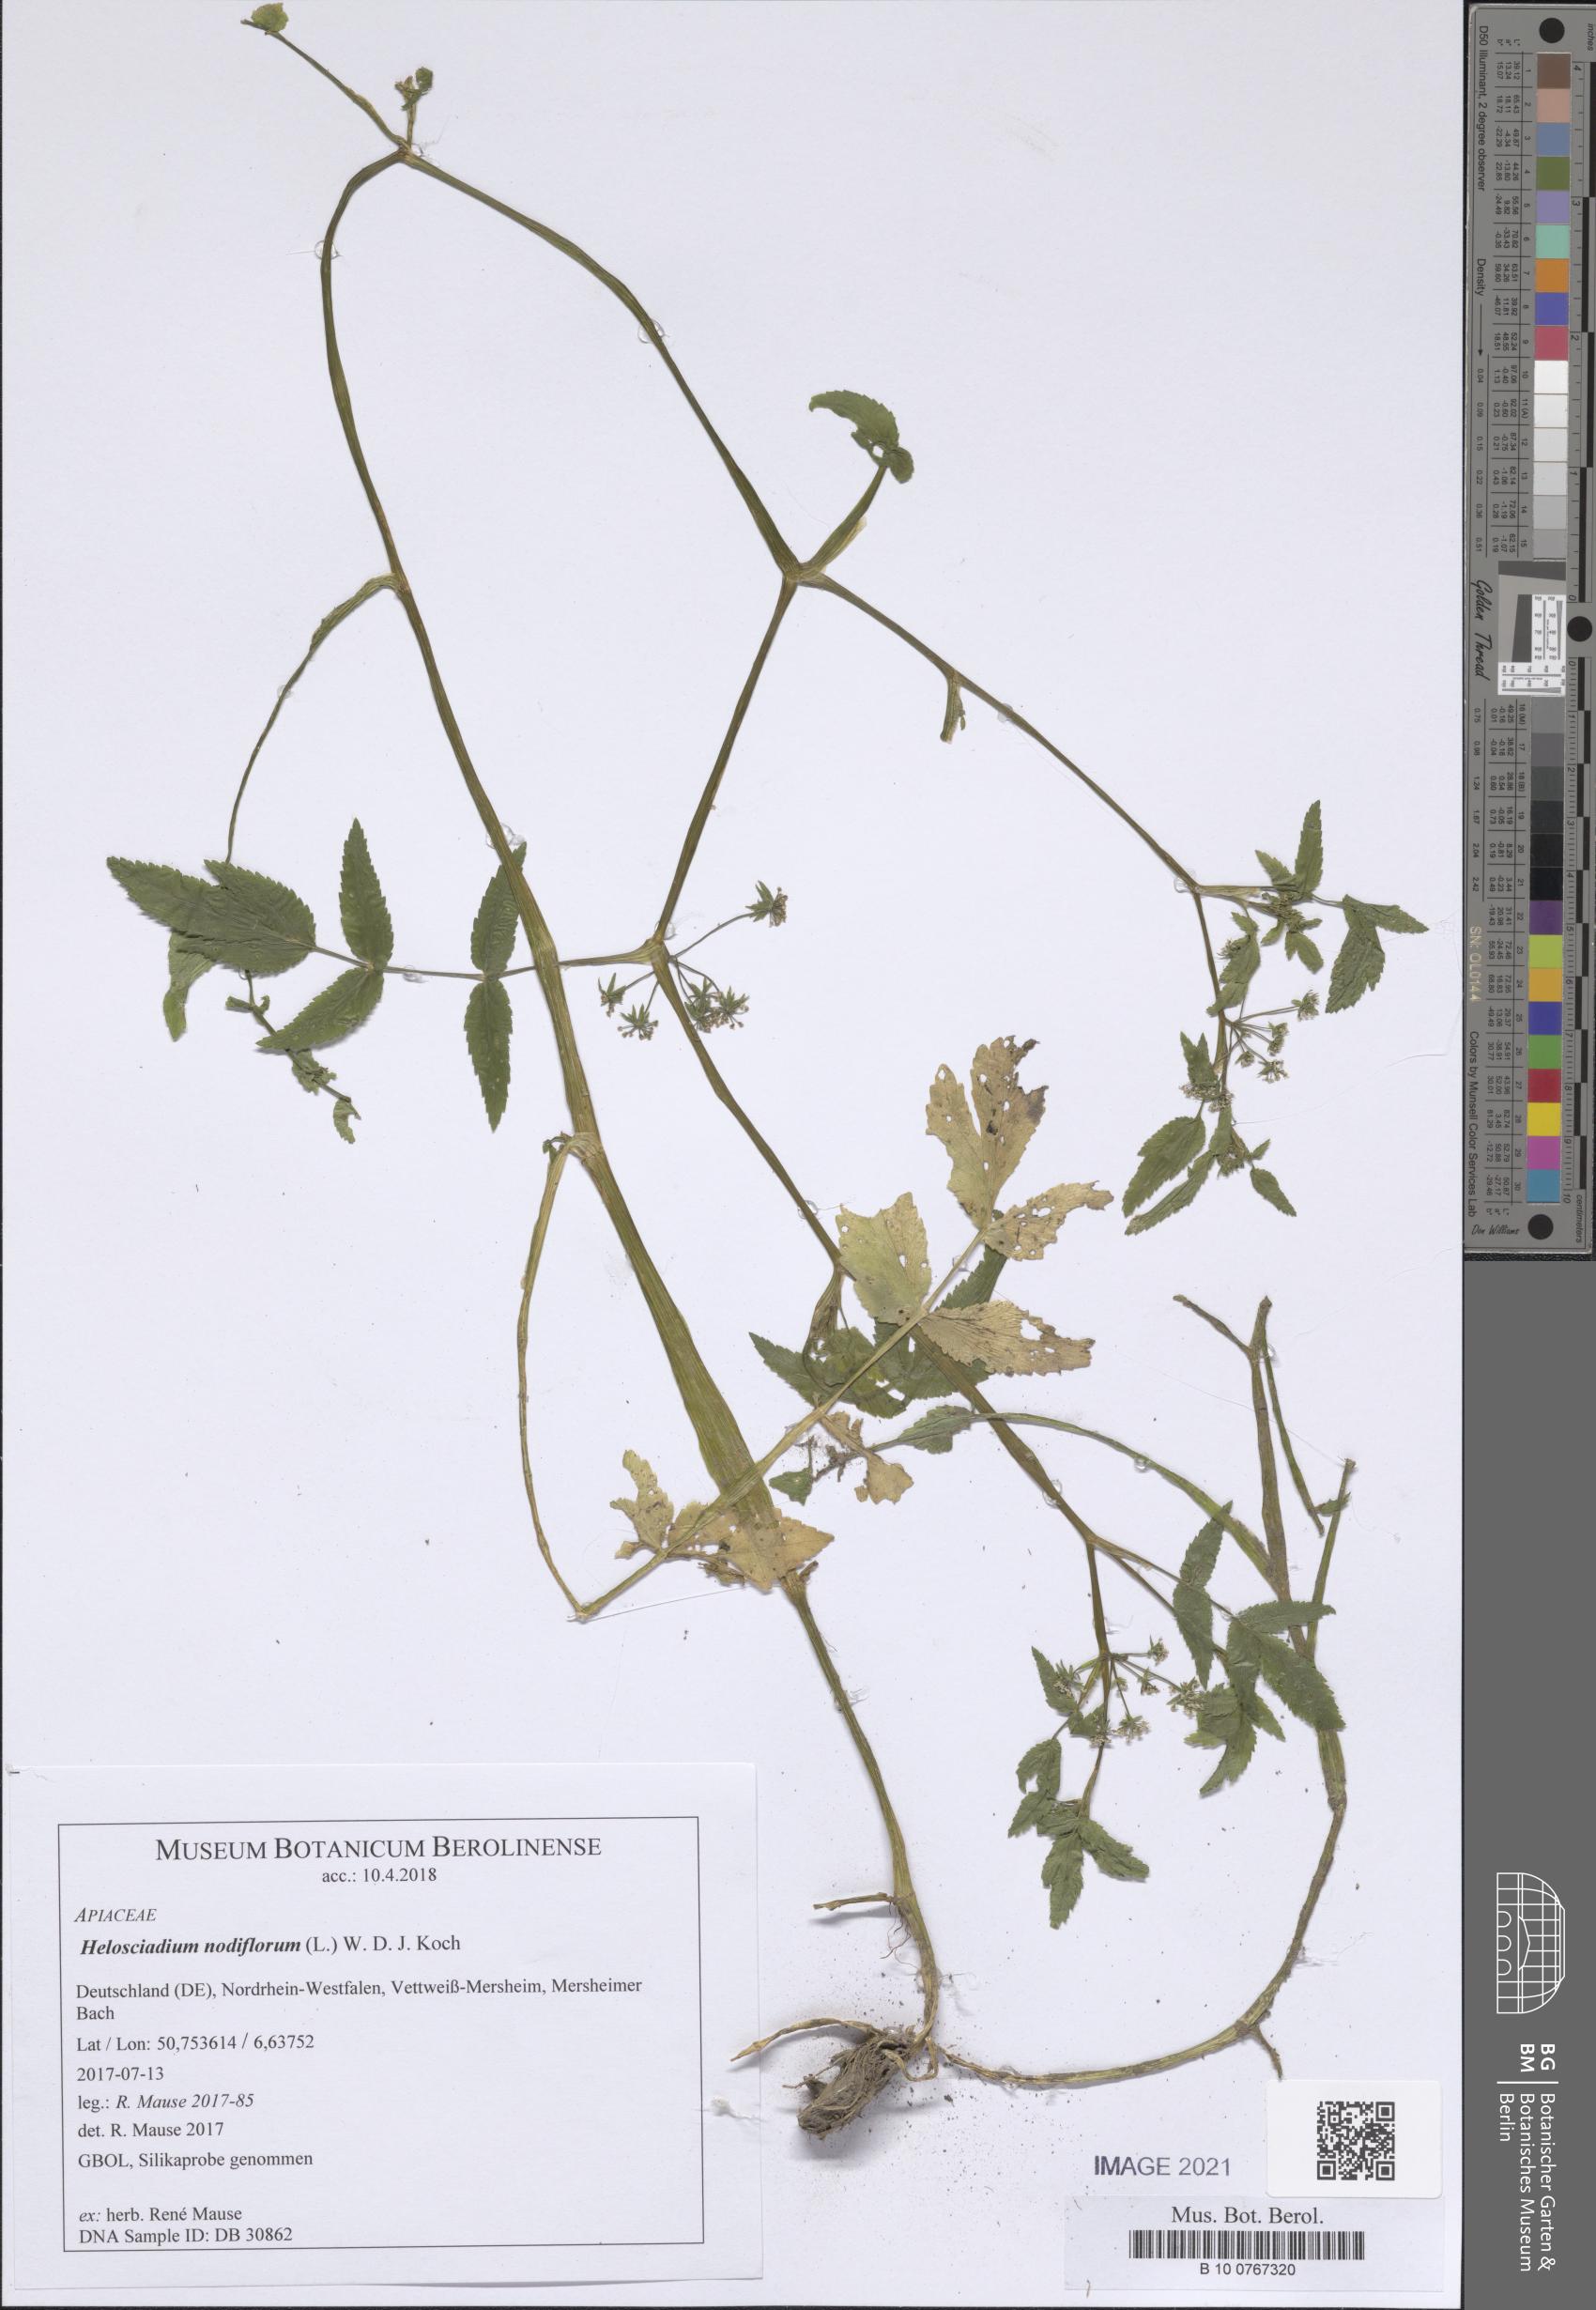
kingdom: Plantae
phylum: Tracheophyta
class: Magnoliopsida
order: Apiales
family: Apiaceae
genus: Helosciadium
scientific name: Helosciadium nodiflorum
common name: Fool's-watercress
